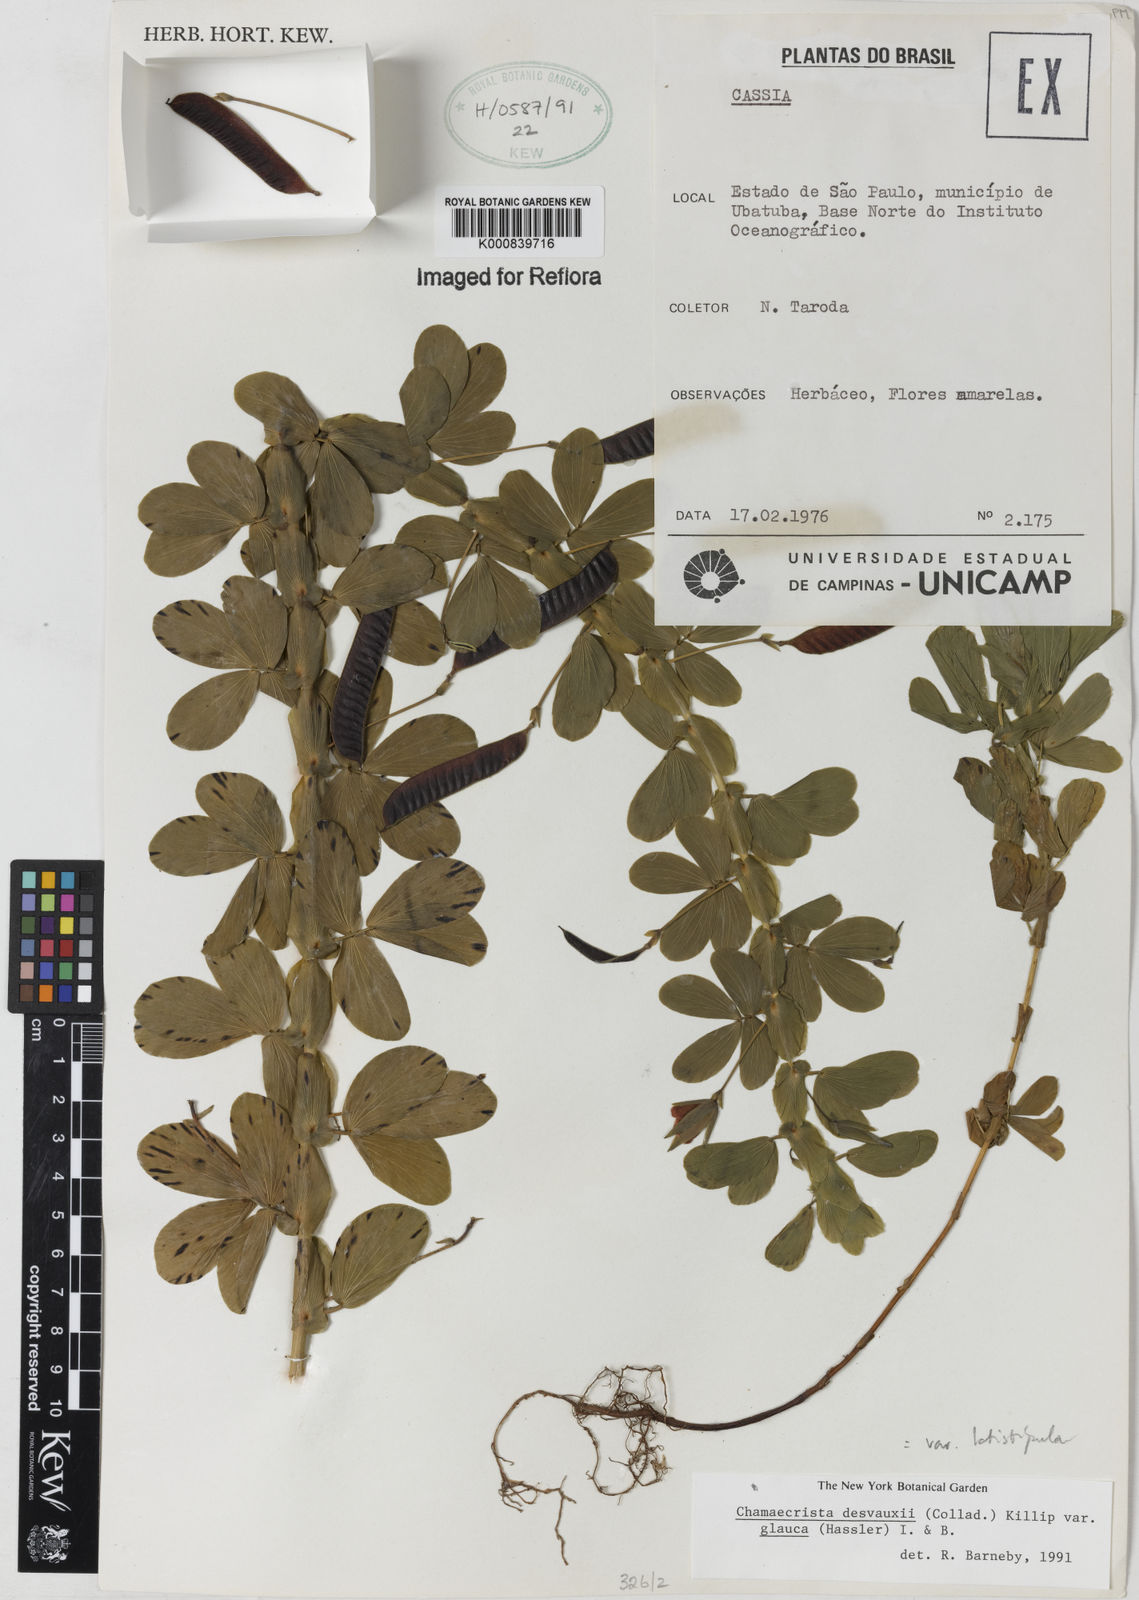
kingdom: Plantae
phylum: Tracheophyta
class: Magnoliopsida
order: Fabales
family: Fabaceae
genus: Chamaecrista
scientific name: Chamaecrista desvauxii
